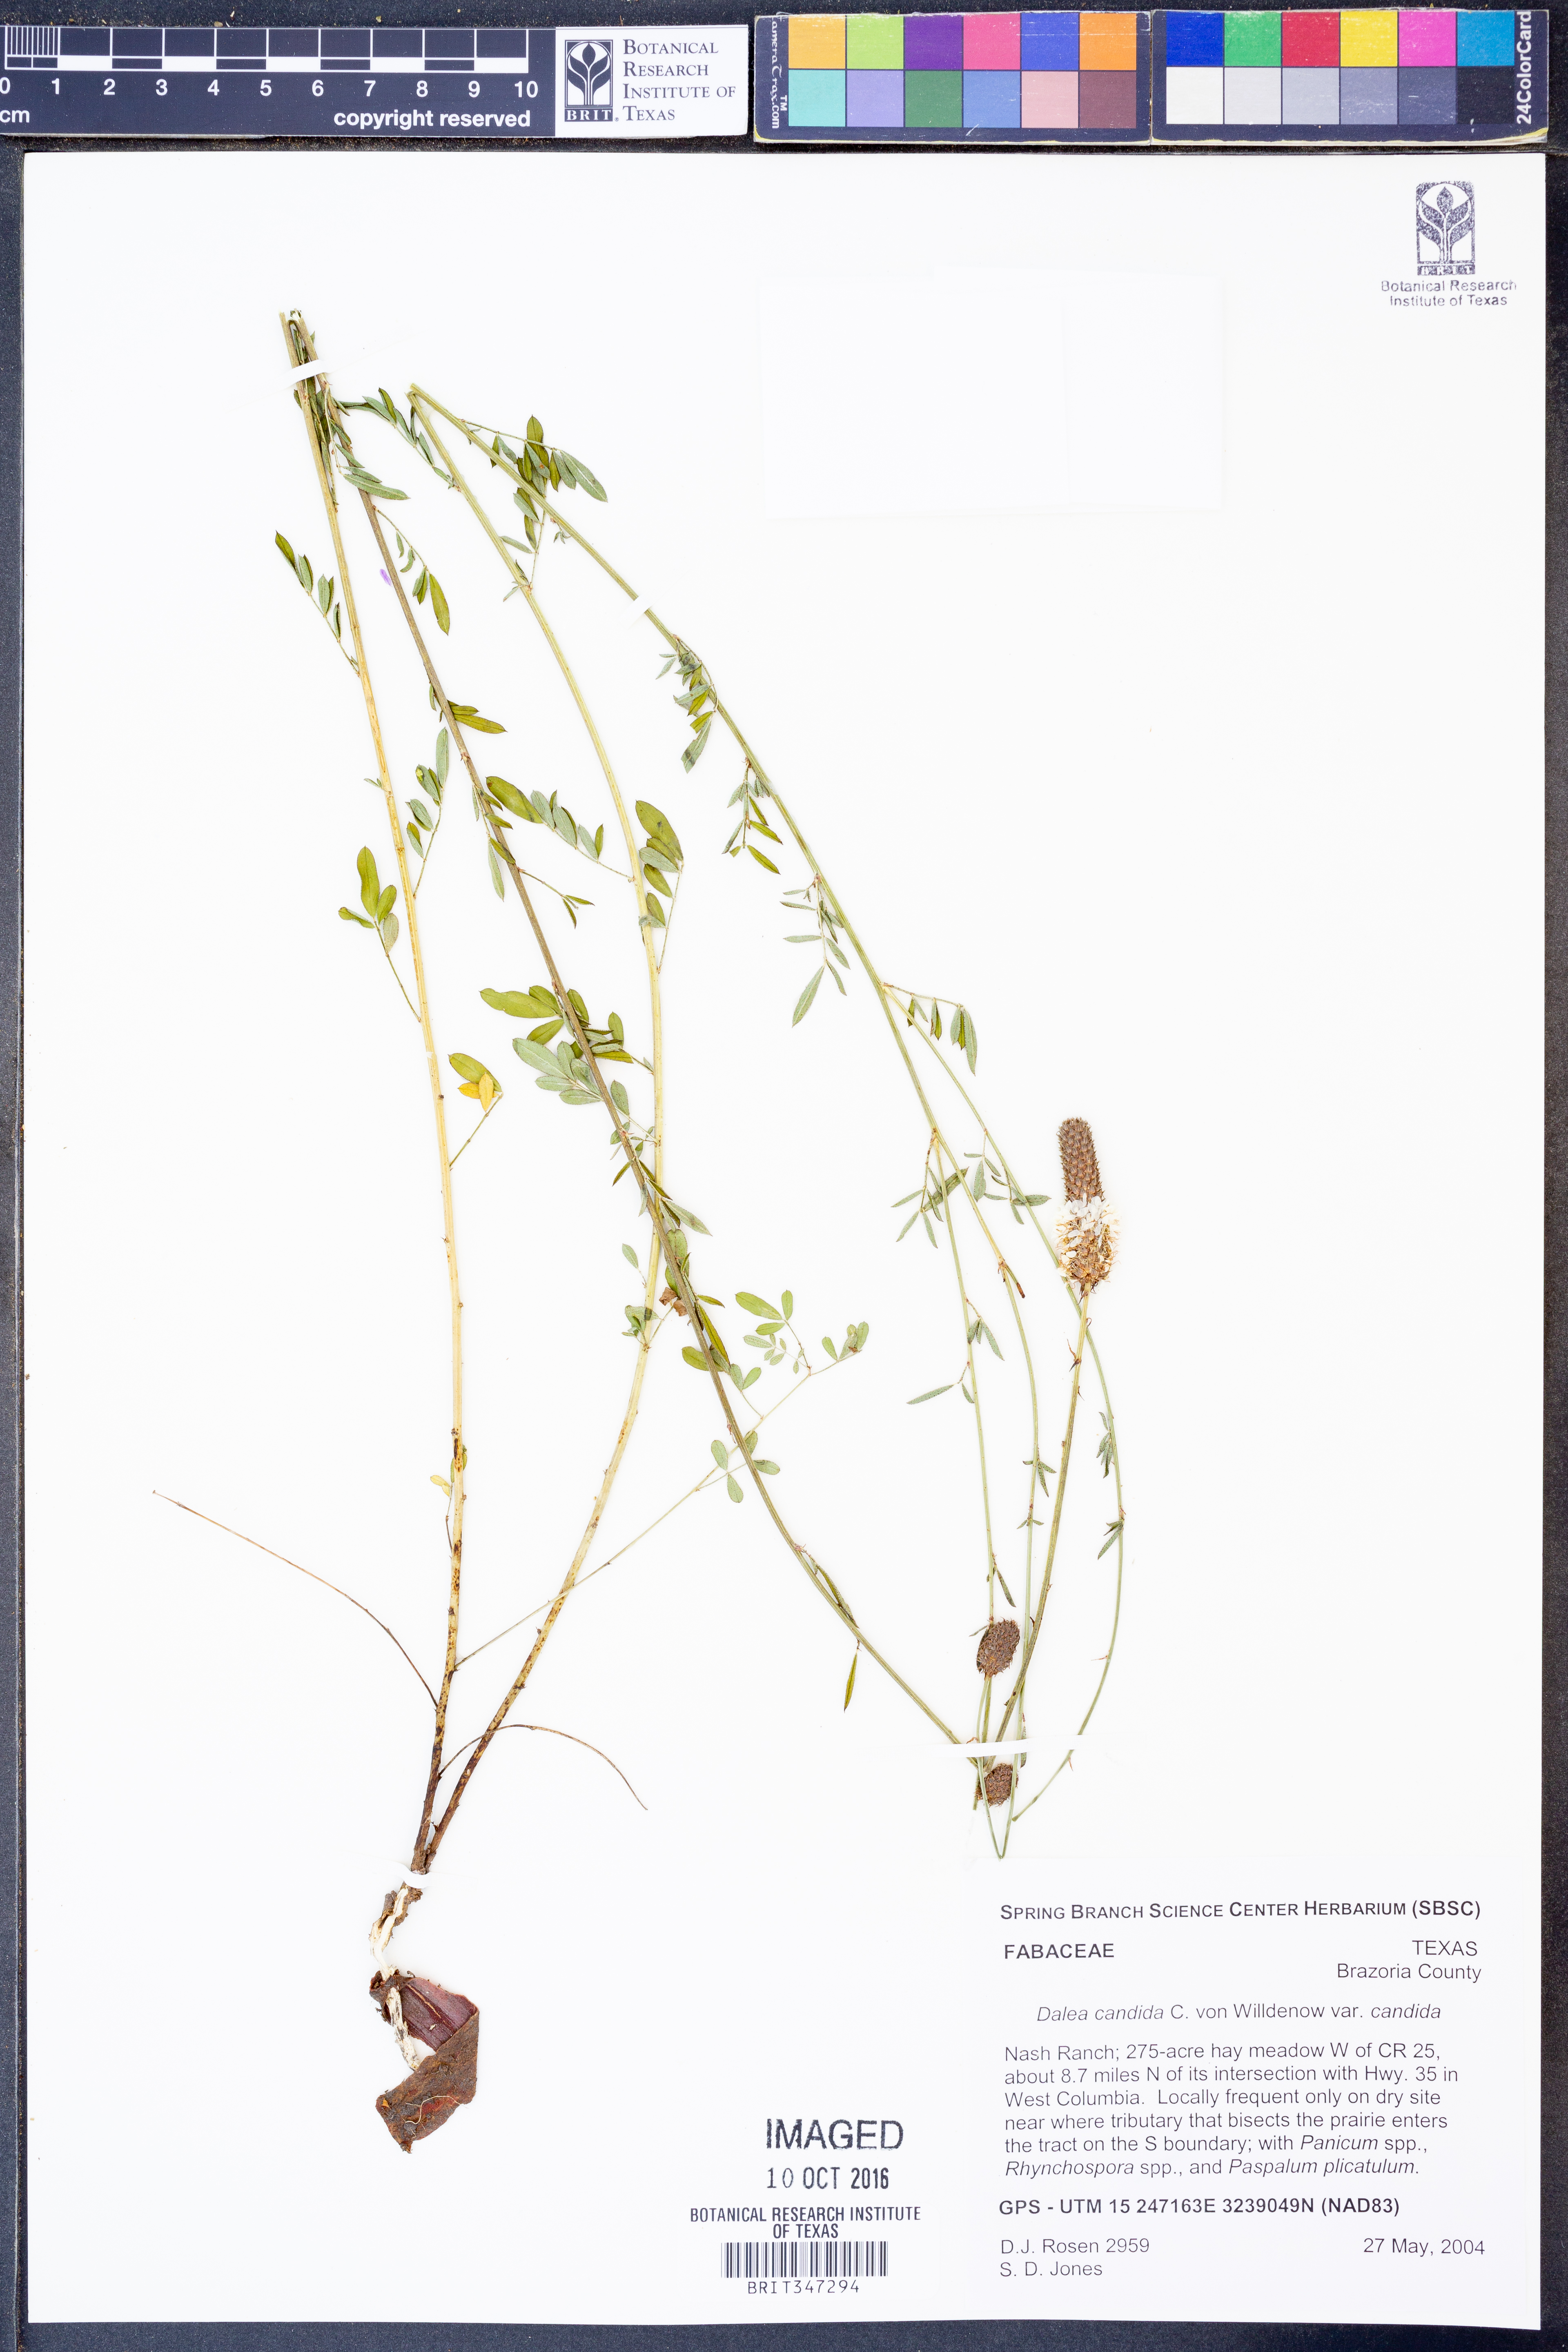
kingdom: Plantae
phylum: Tracheophyta
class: Magnoliopsida
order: Fabales
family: Fabaceae
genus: Dalea
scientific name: Dalea candida
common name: White prairie-clover
